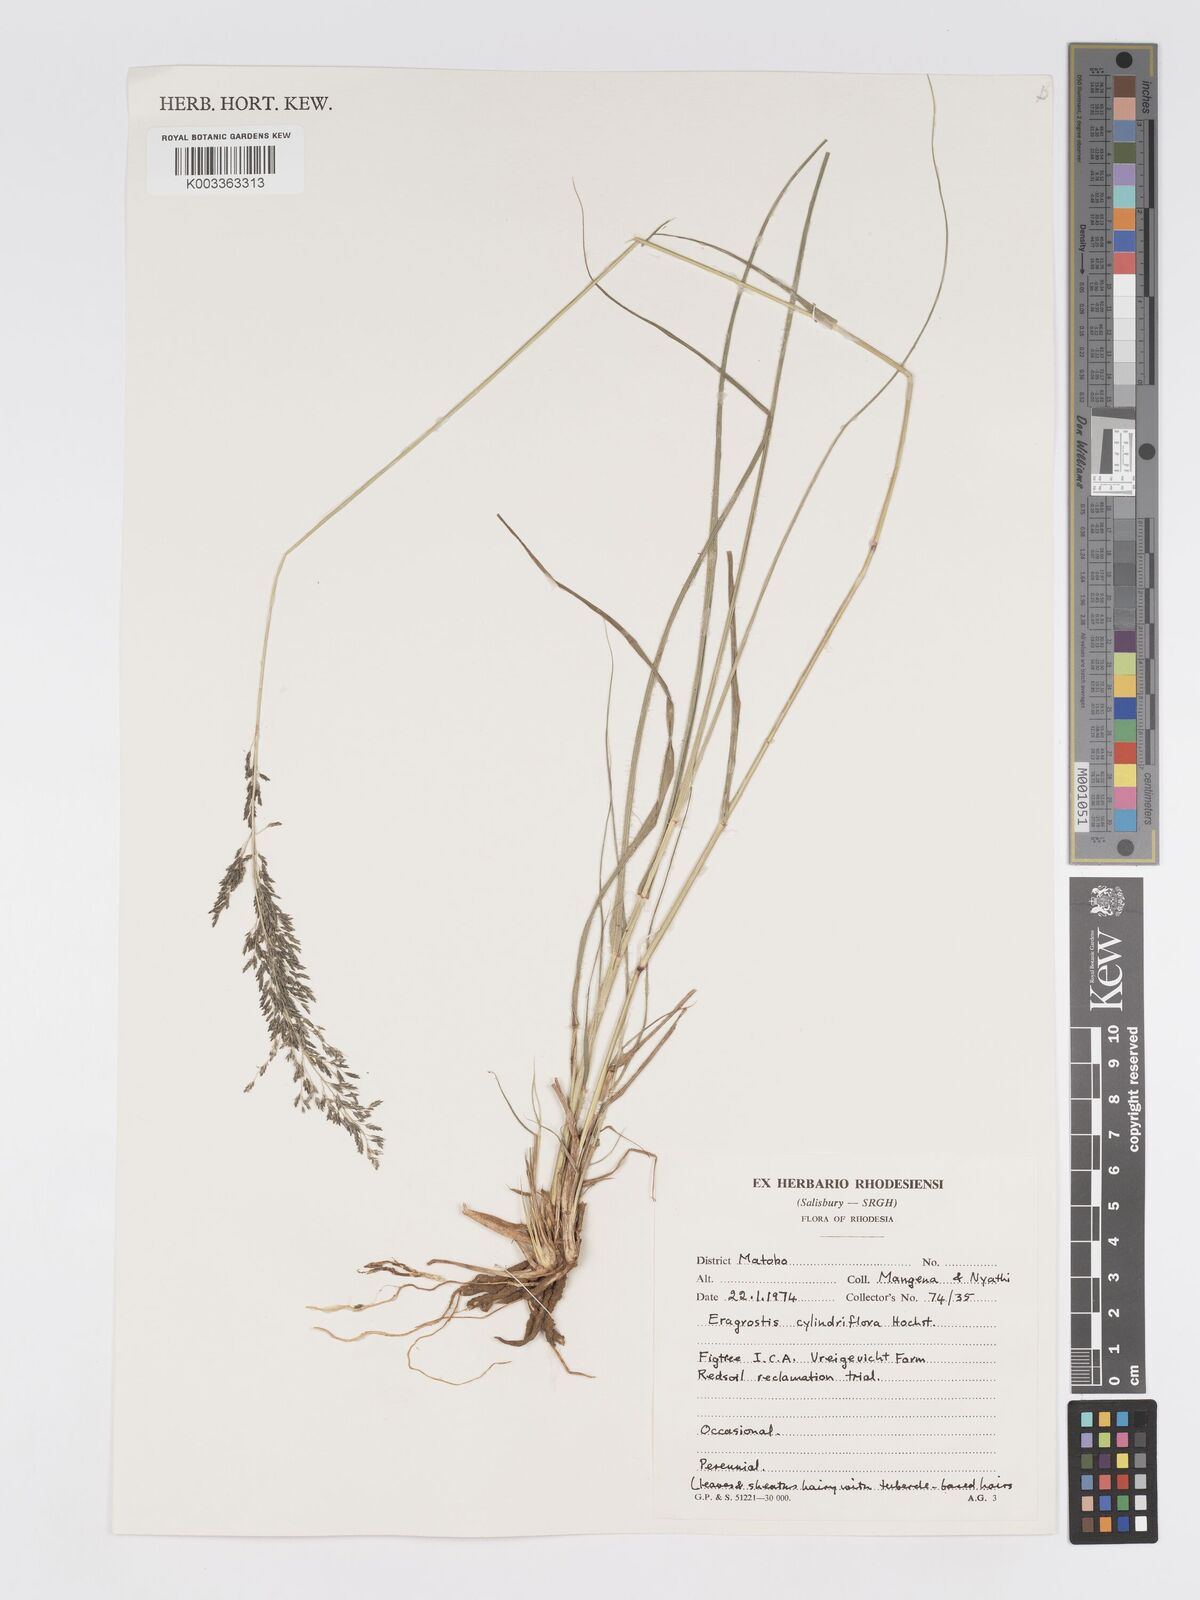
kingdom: Plantae
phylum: Tracheophyta
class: Liliopsida
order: Poales
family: Poaceae
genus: Eragrostis
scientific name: Eragrostis curvula
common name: African love-grass
